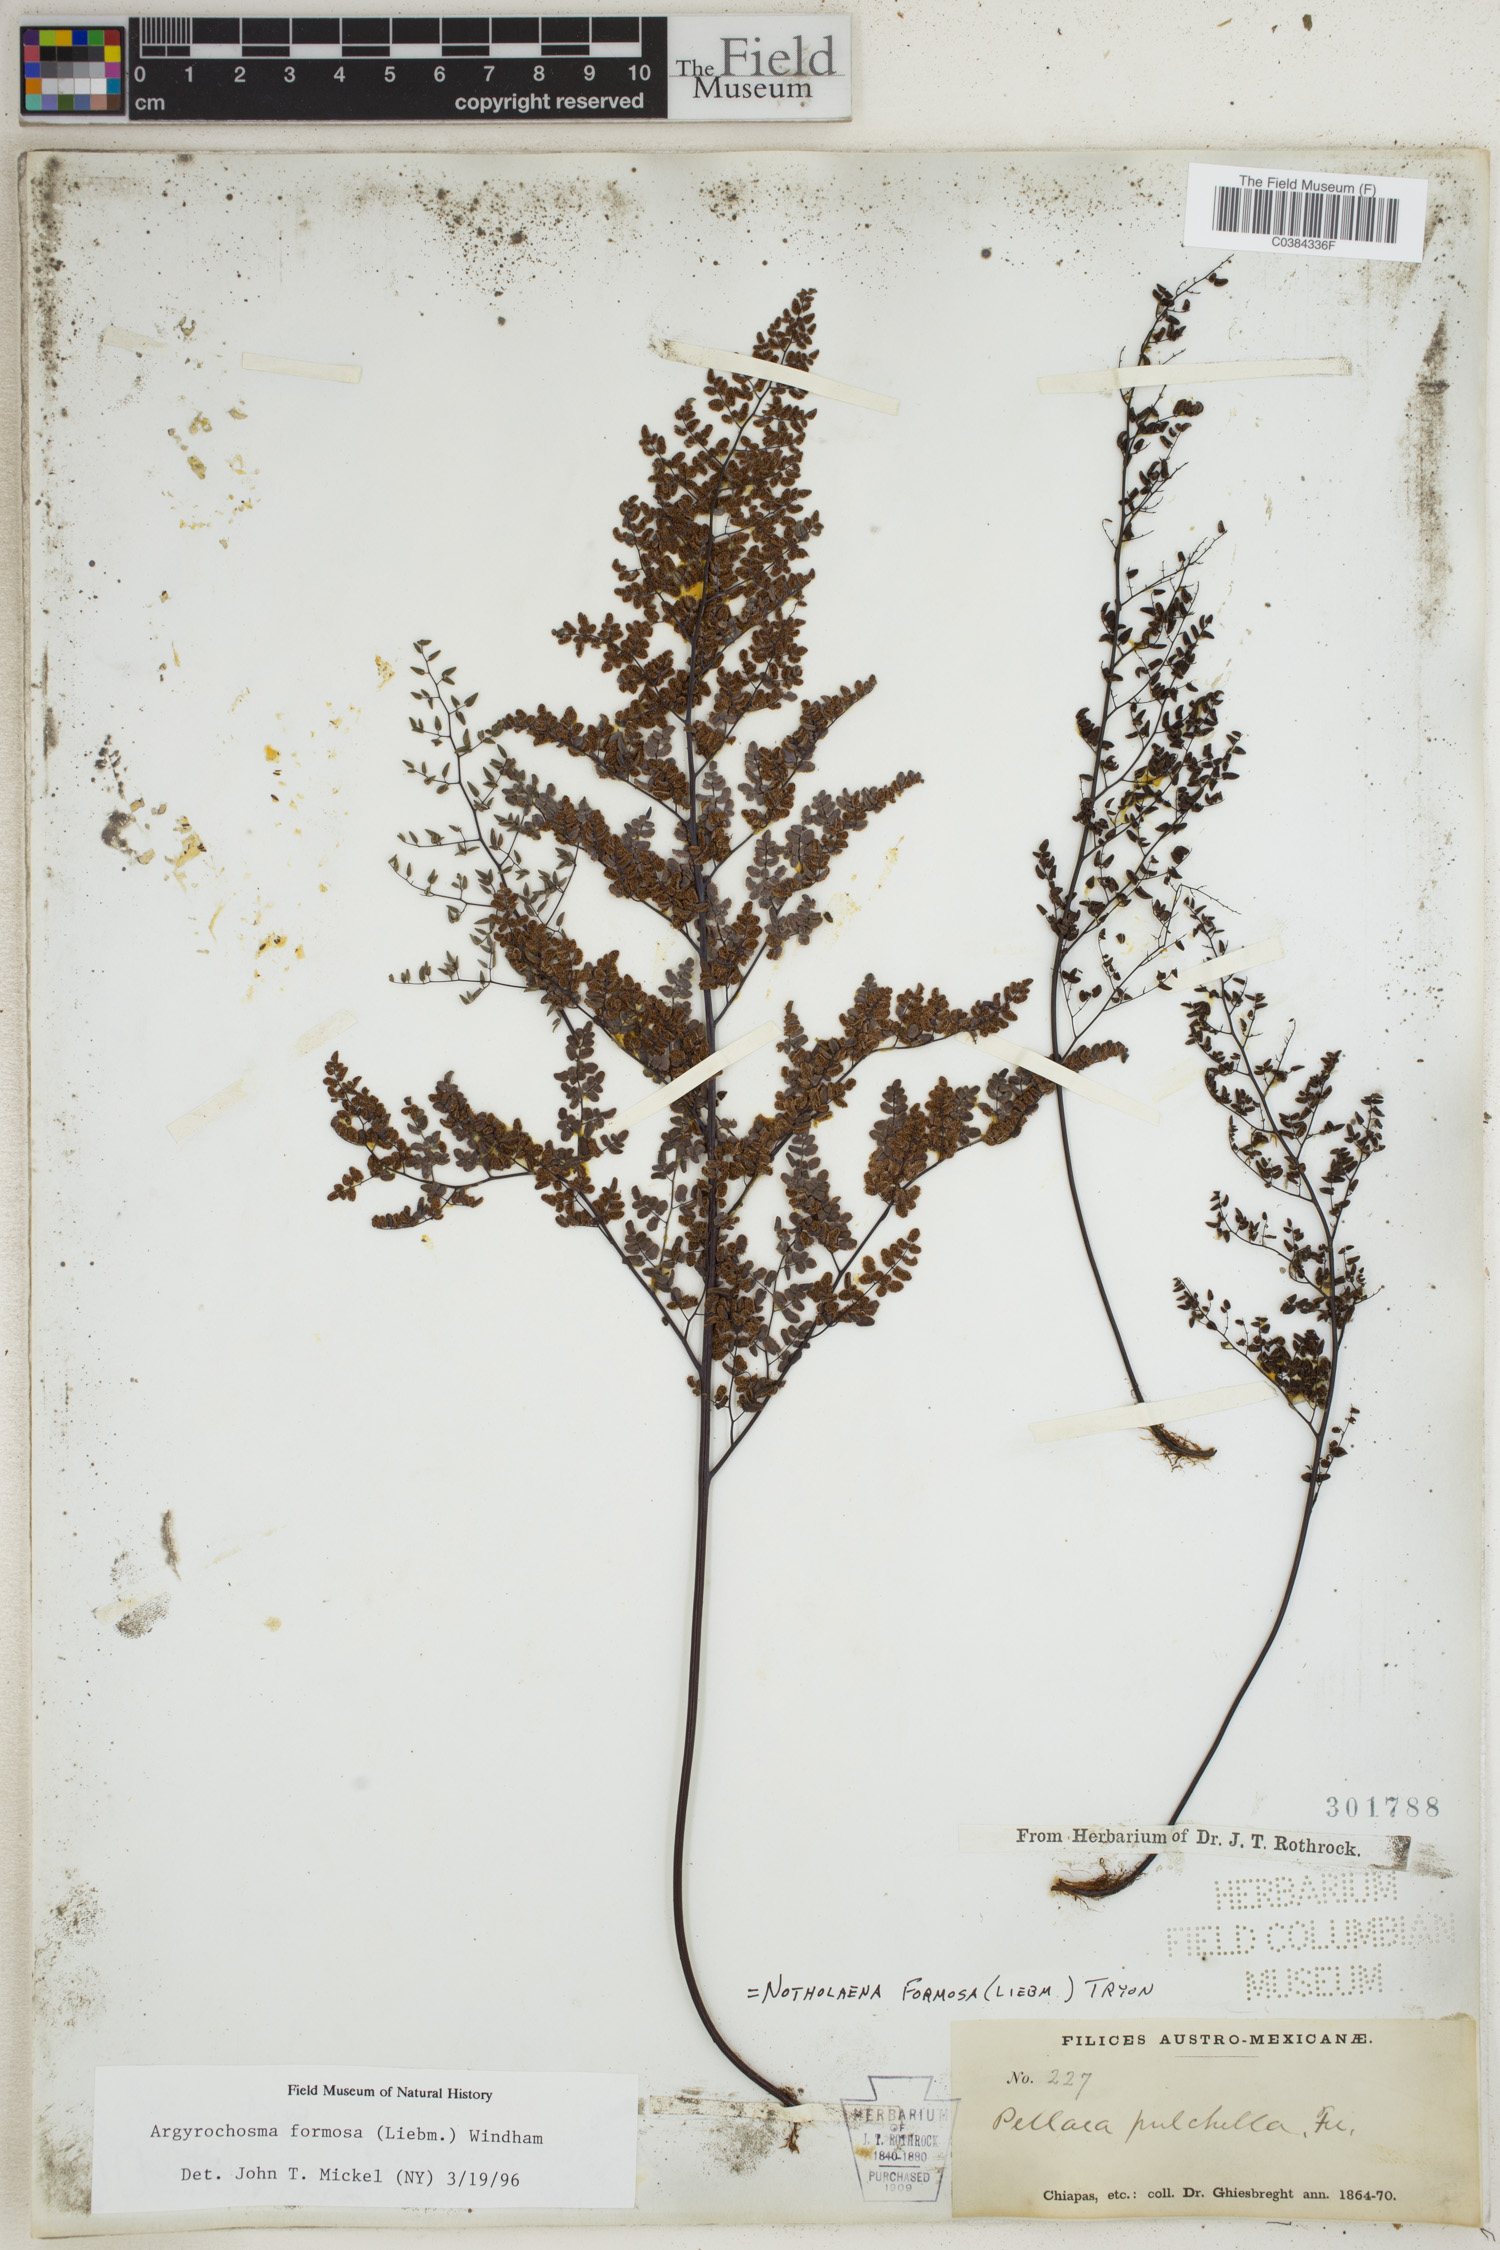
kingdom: Plantae
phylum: Tracheophyta
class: Polypodiopsida
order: Polypodiales
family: Pteridaceae
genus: Argyrochosma
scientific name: Argyrochosma formosa
